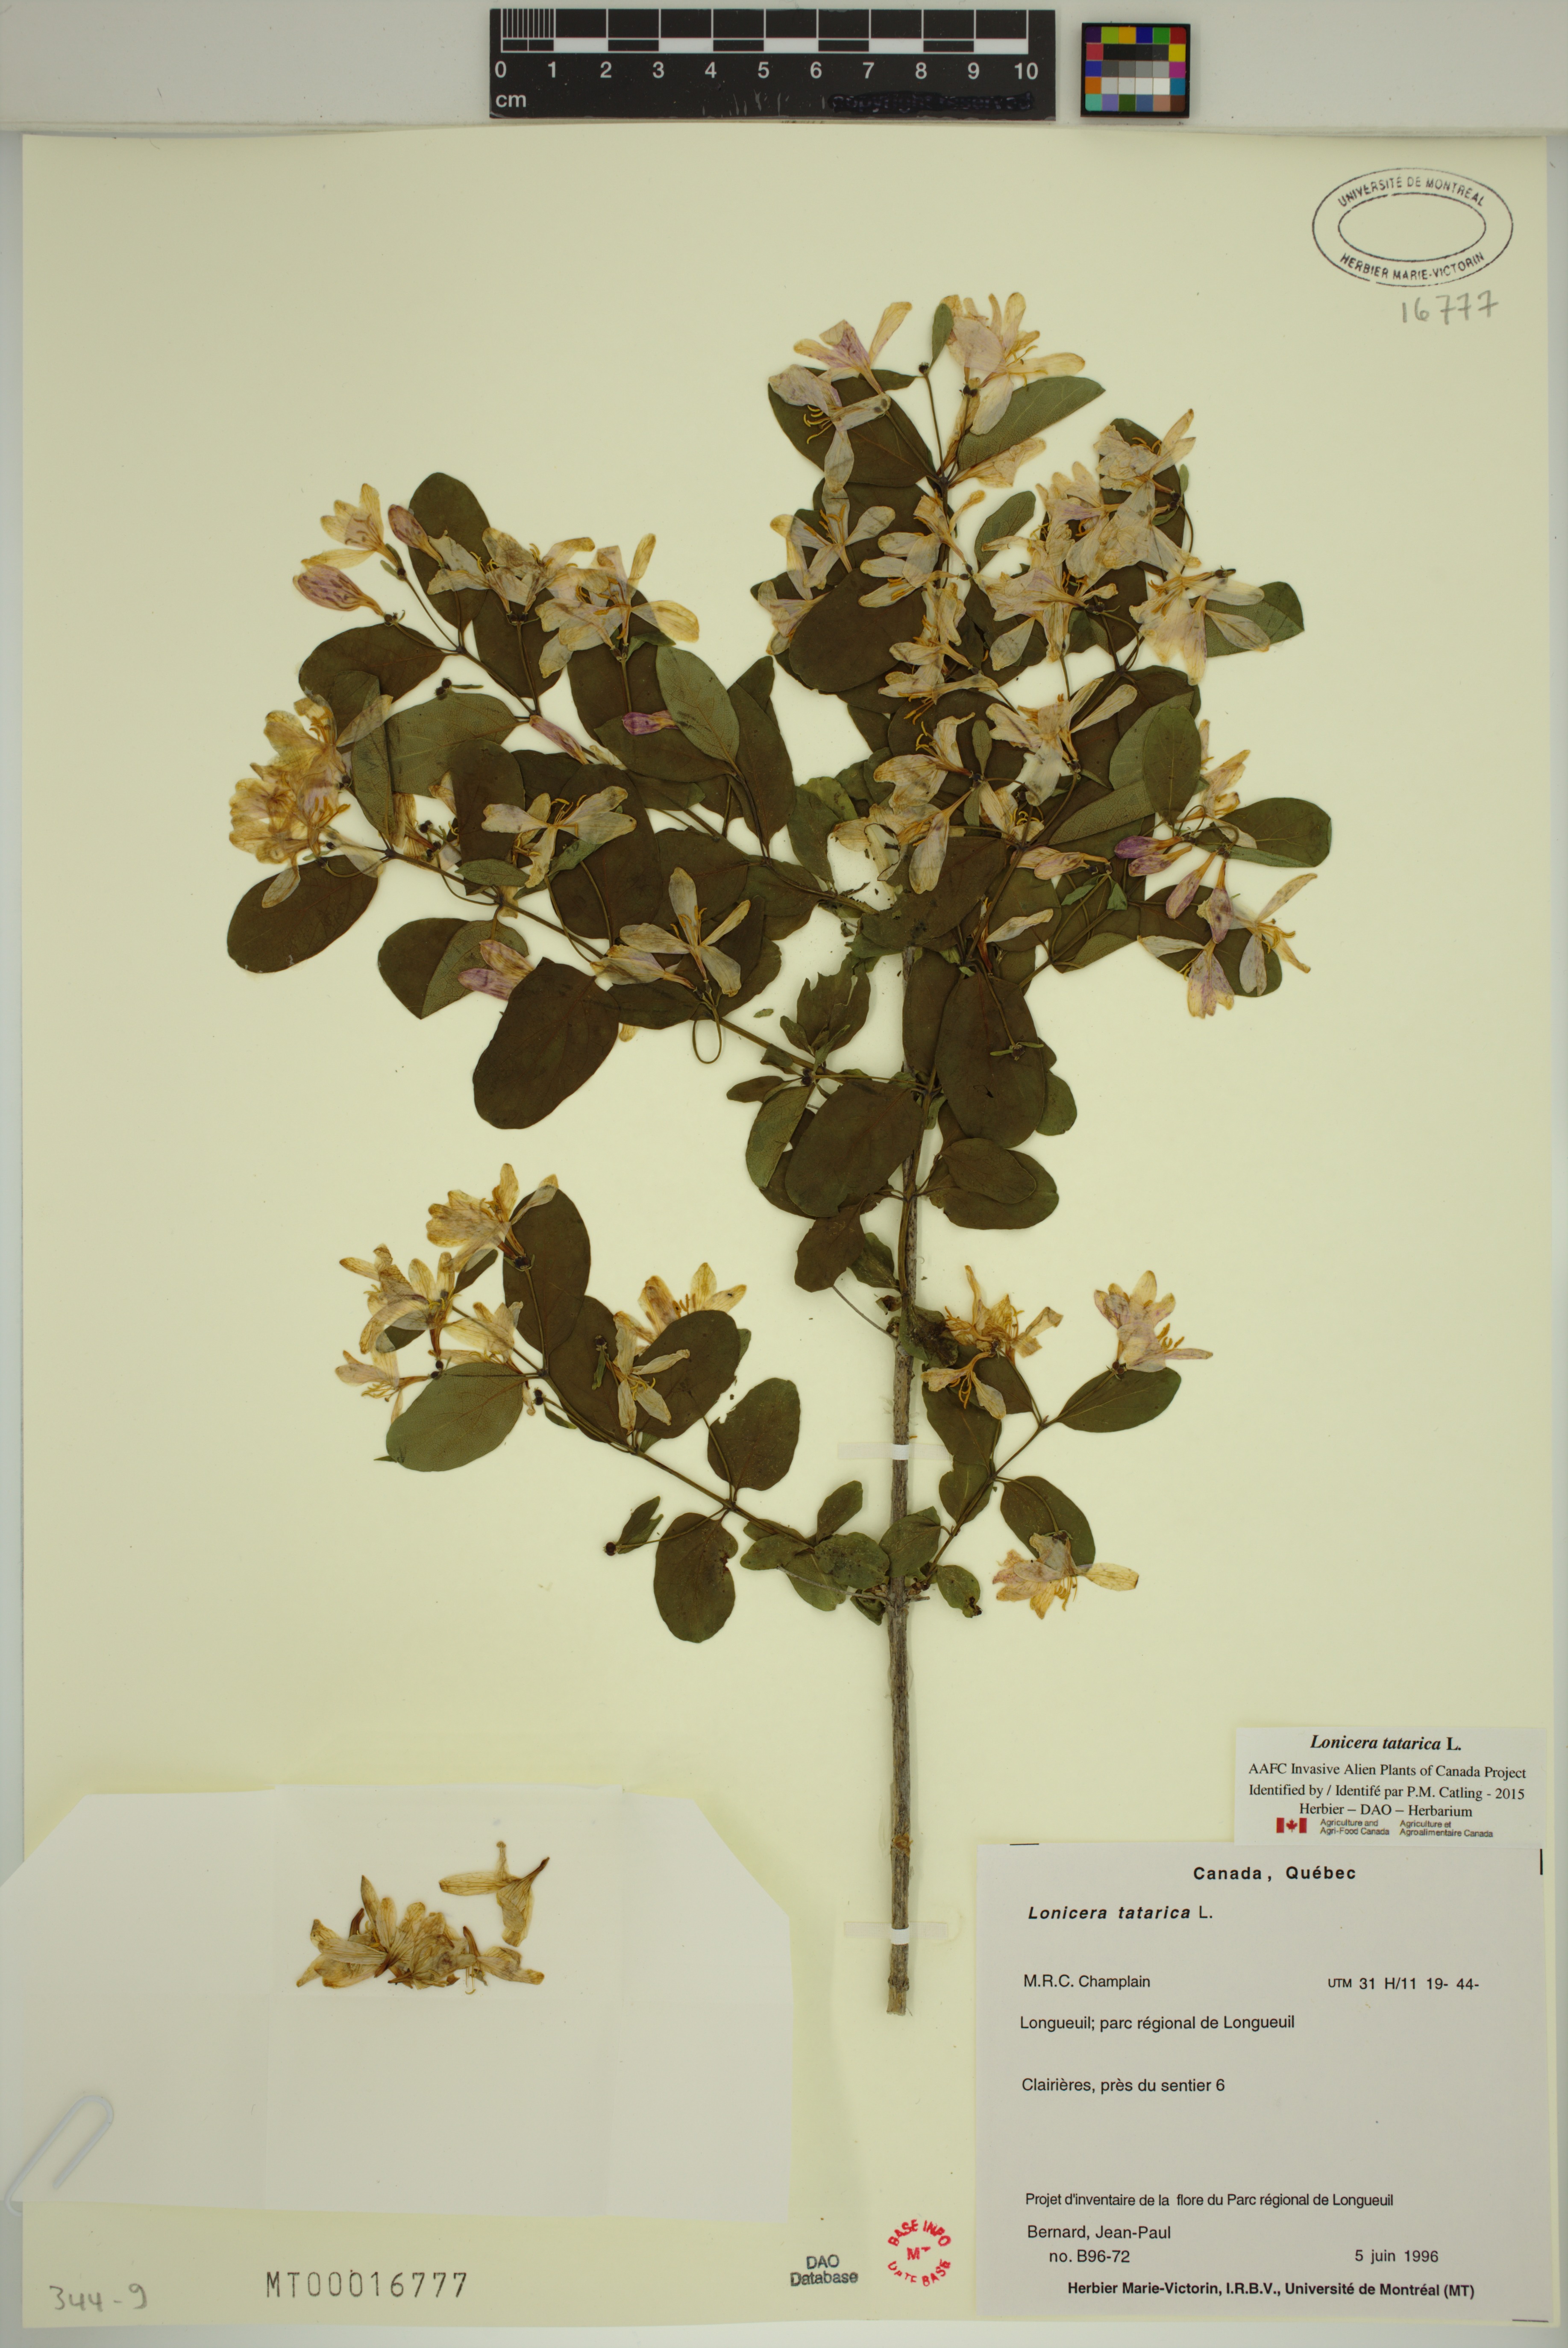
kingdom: Plantae
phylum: Tracheophyta
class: Magnoliopsida
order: Dipsacales
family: Caprifoliaceae
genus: Lonicera
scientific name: Lonicera tatarica
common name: Tatarian honeysuckle
